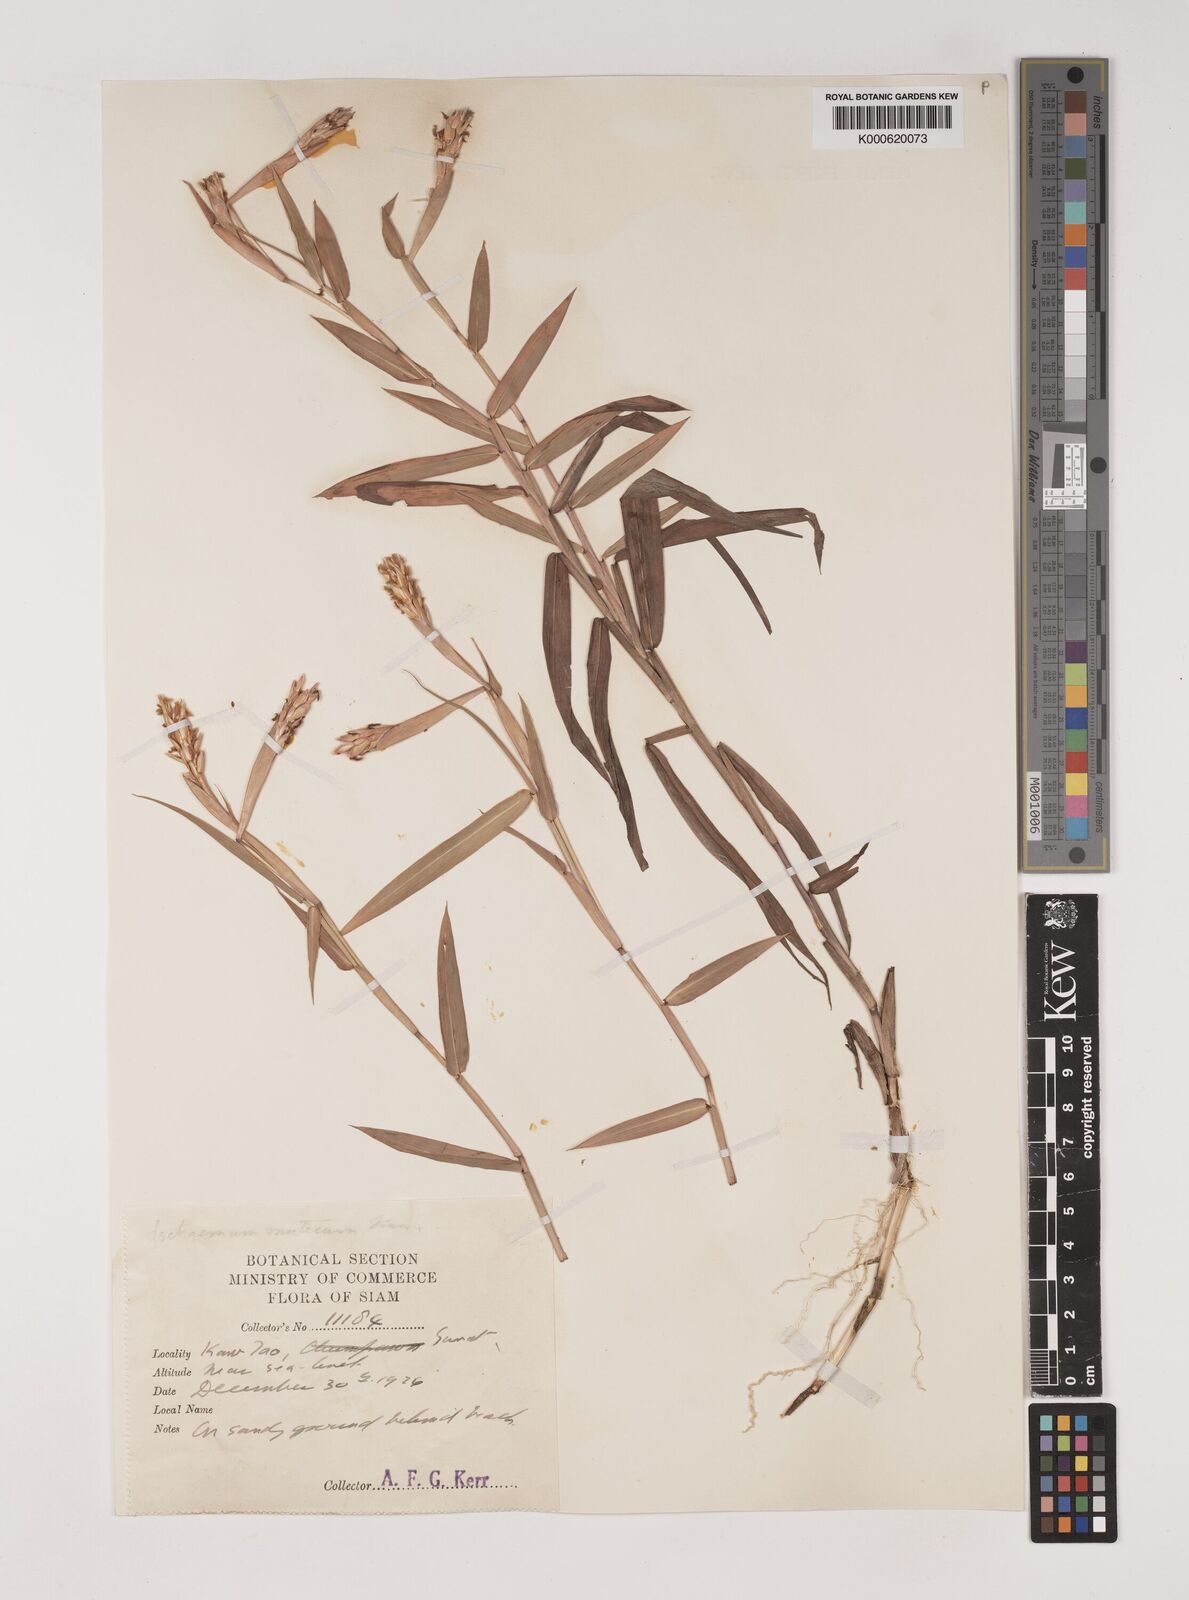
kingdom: Plantae
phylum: Tracheophyta
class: Liliopsida
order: Poales
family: Poaceae
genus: Ischaemum
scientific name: Ischaemum muticum
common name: Drought grass
